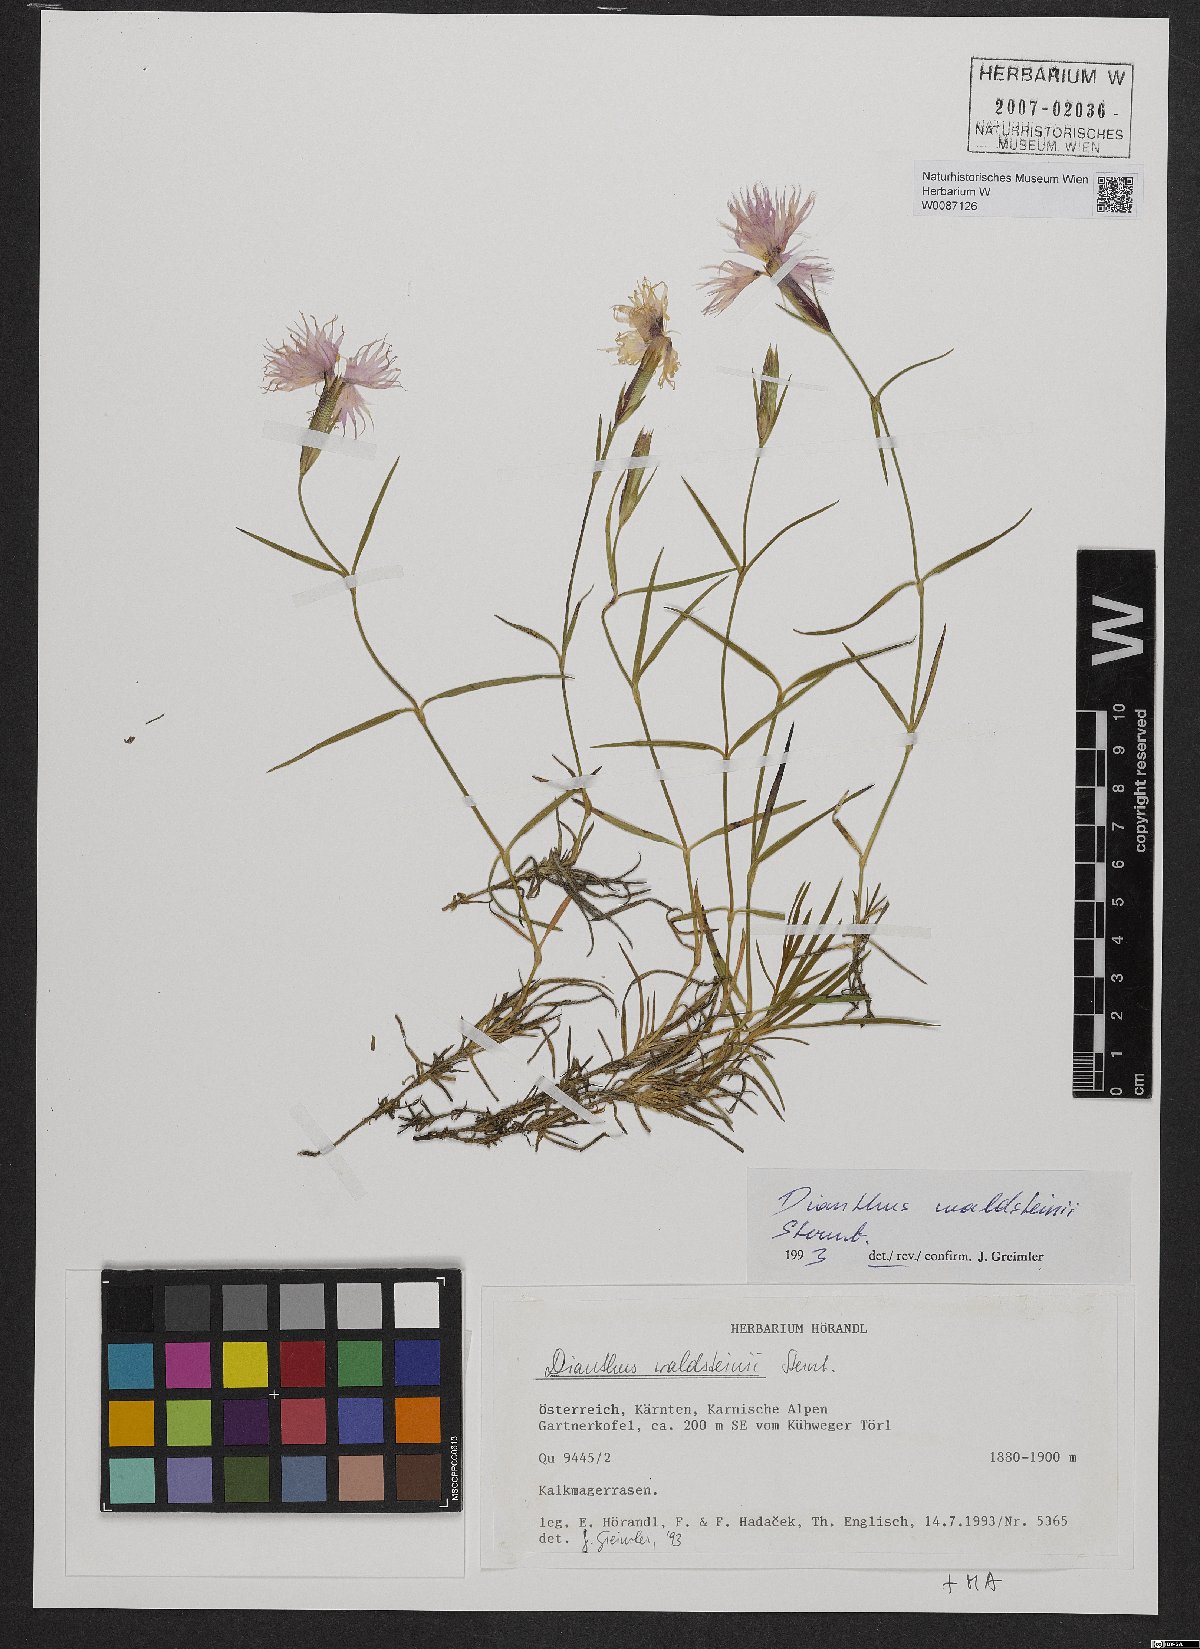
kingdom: Plantae
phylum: Tracheophyta
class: Magnoliopsida
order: Caryophyllales
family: Caryophyllaceae
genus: Dianthus
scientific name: Dianthus sternbergii
